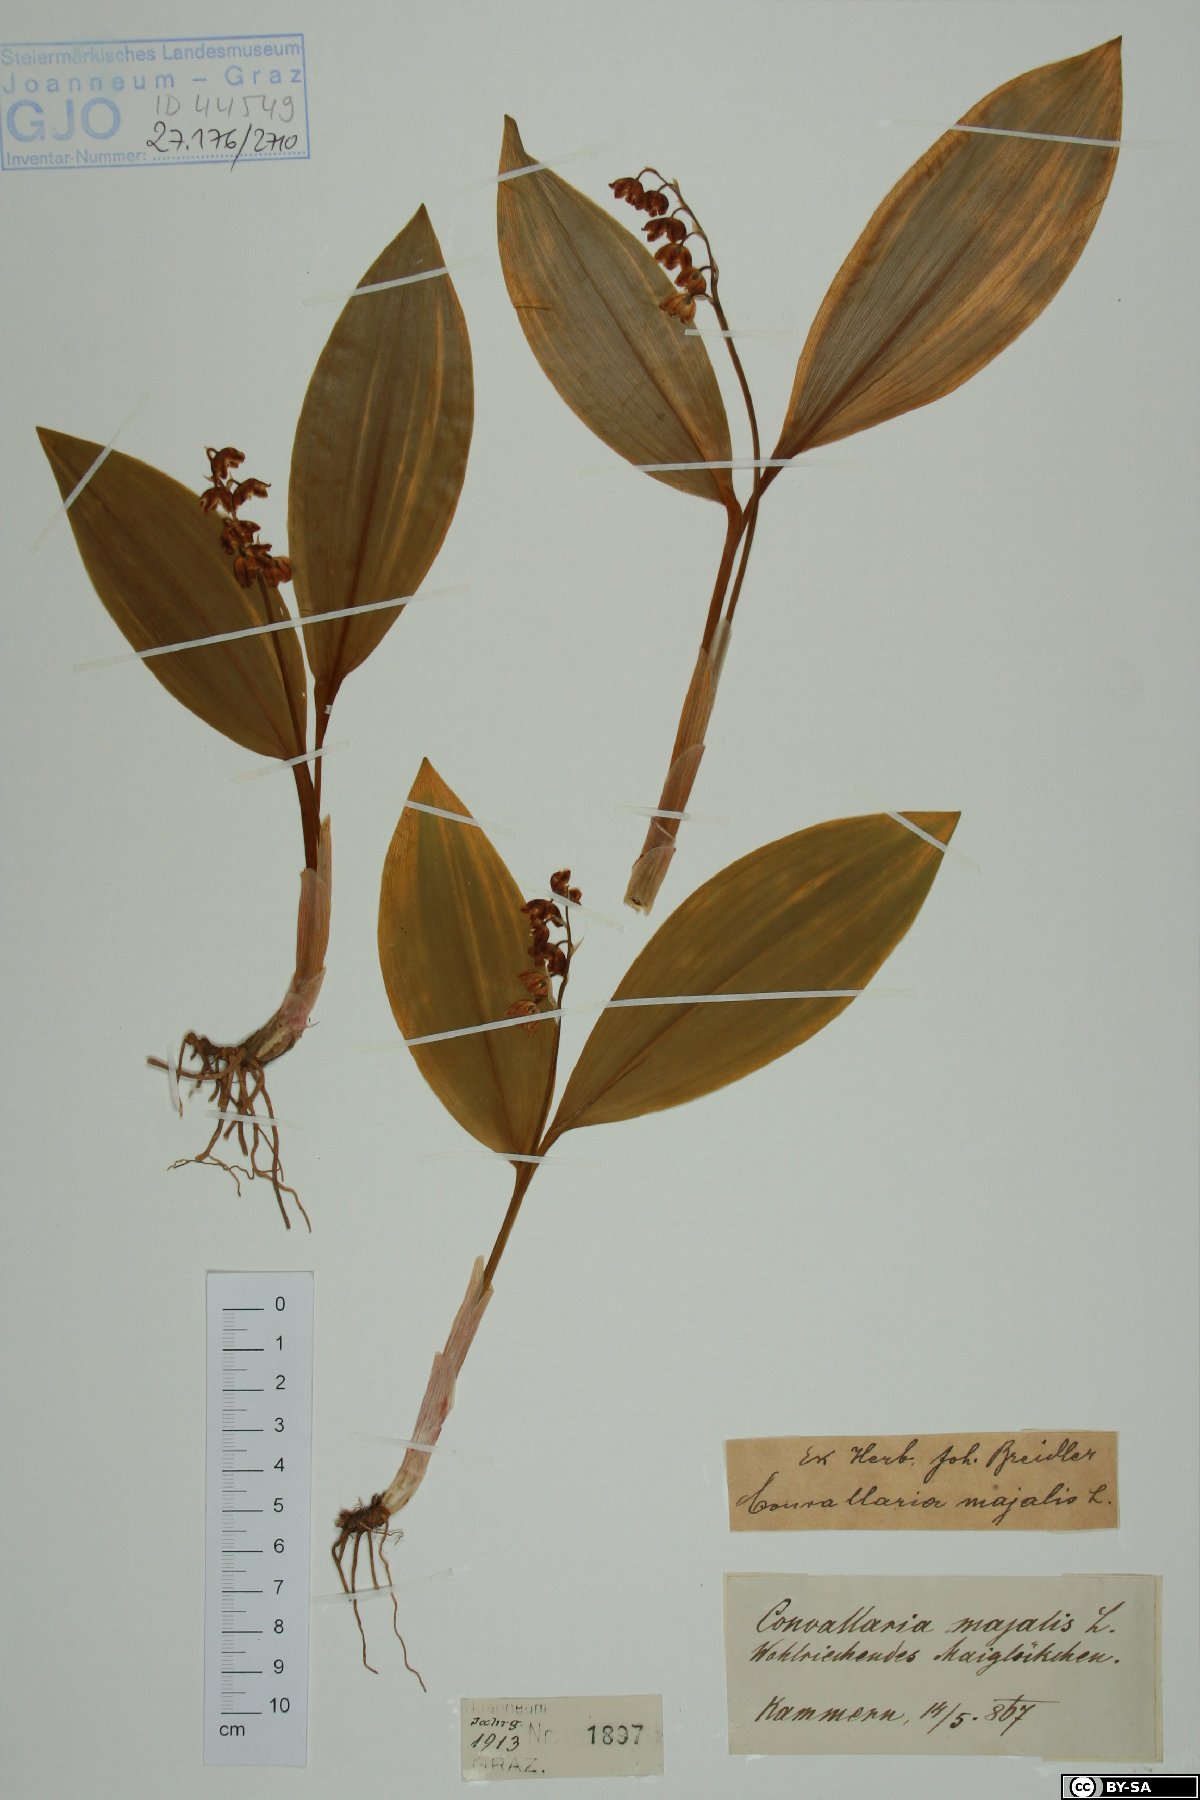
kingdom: Plantae
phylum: Tracheophyta
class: Liliopsida
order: Asparagales
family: Asparagaceae
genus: Convallaria
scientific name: Convallaria majalis
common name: Lily-of-the-valley
